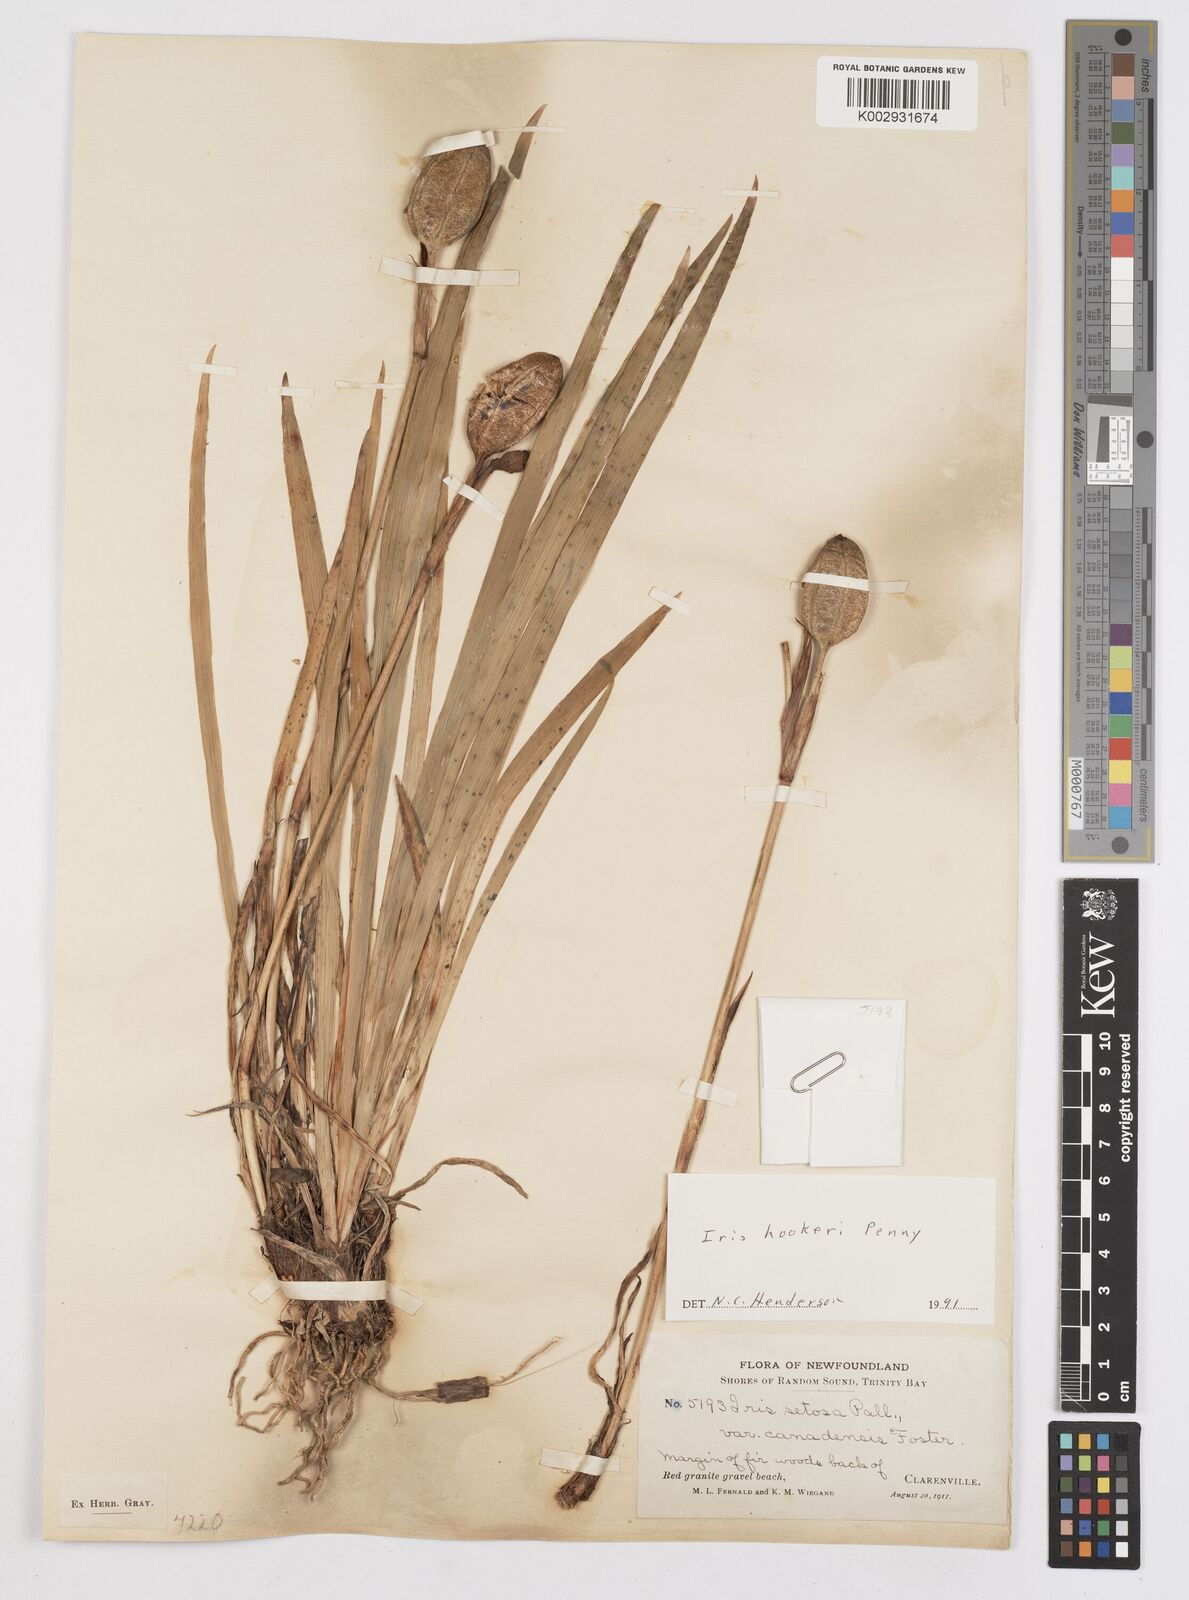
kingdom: Plantae
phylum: Tracheophyta
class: Liliopsida
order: Asparagales
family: Iridaceae
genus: Iris
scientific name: Iris setosa
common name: Arctic blue flag
